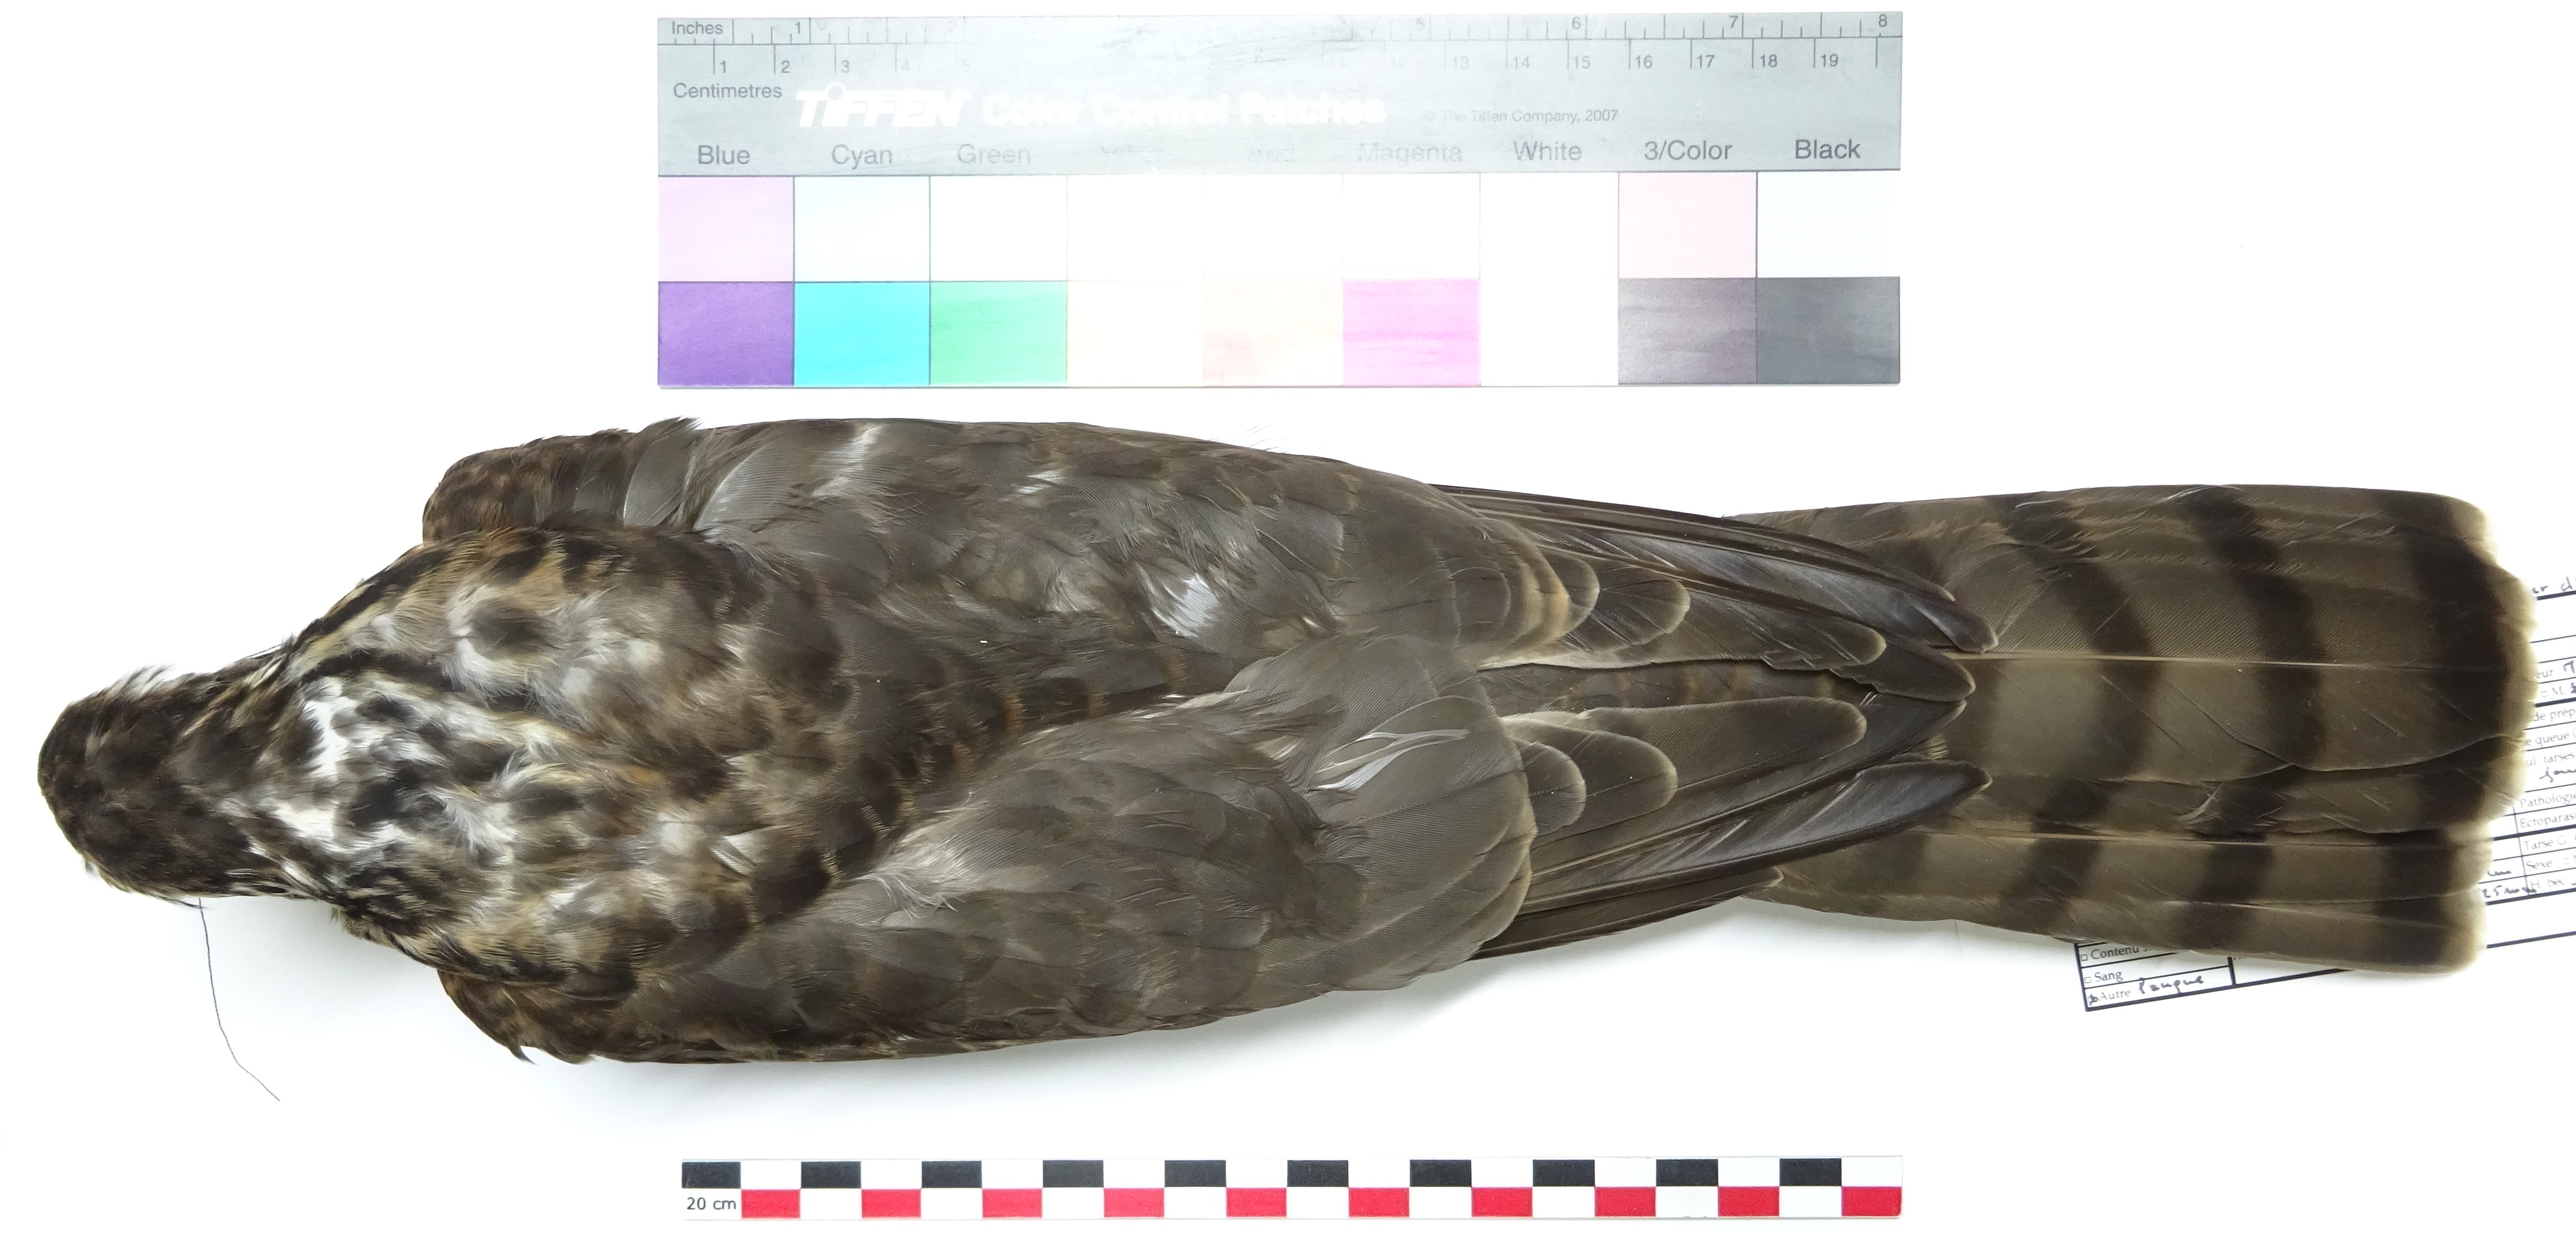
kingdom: Animalia
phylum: Chordata
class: Aves
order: Accipitriformes
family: Accipitridae
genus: Accipiter
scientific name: Accipiter nisus
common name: Eurasian sparrowhawk
